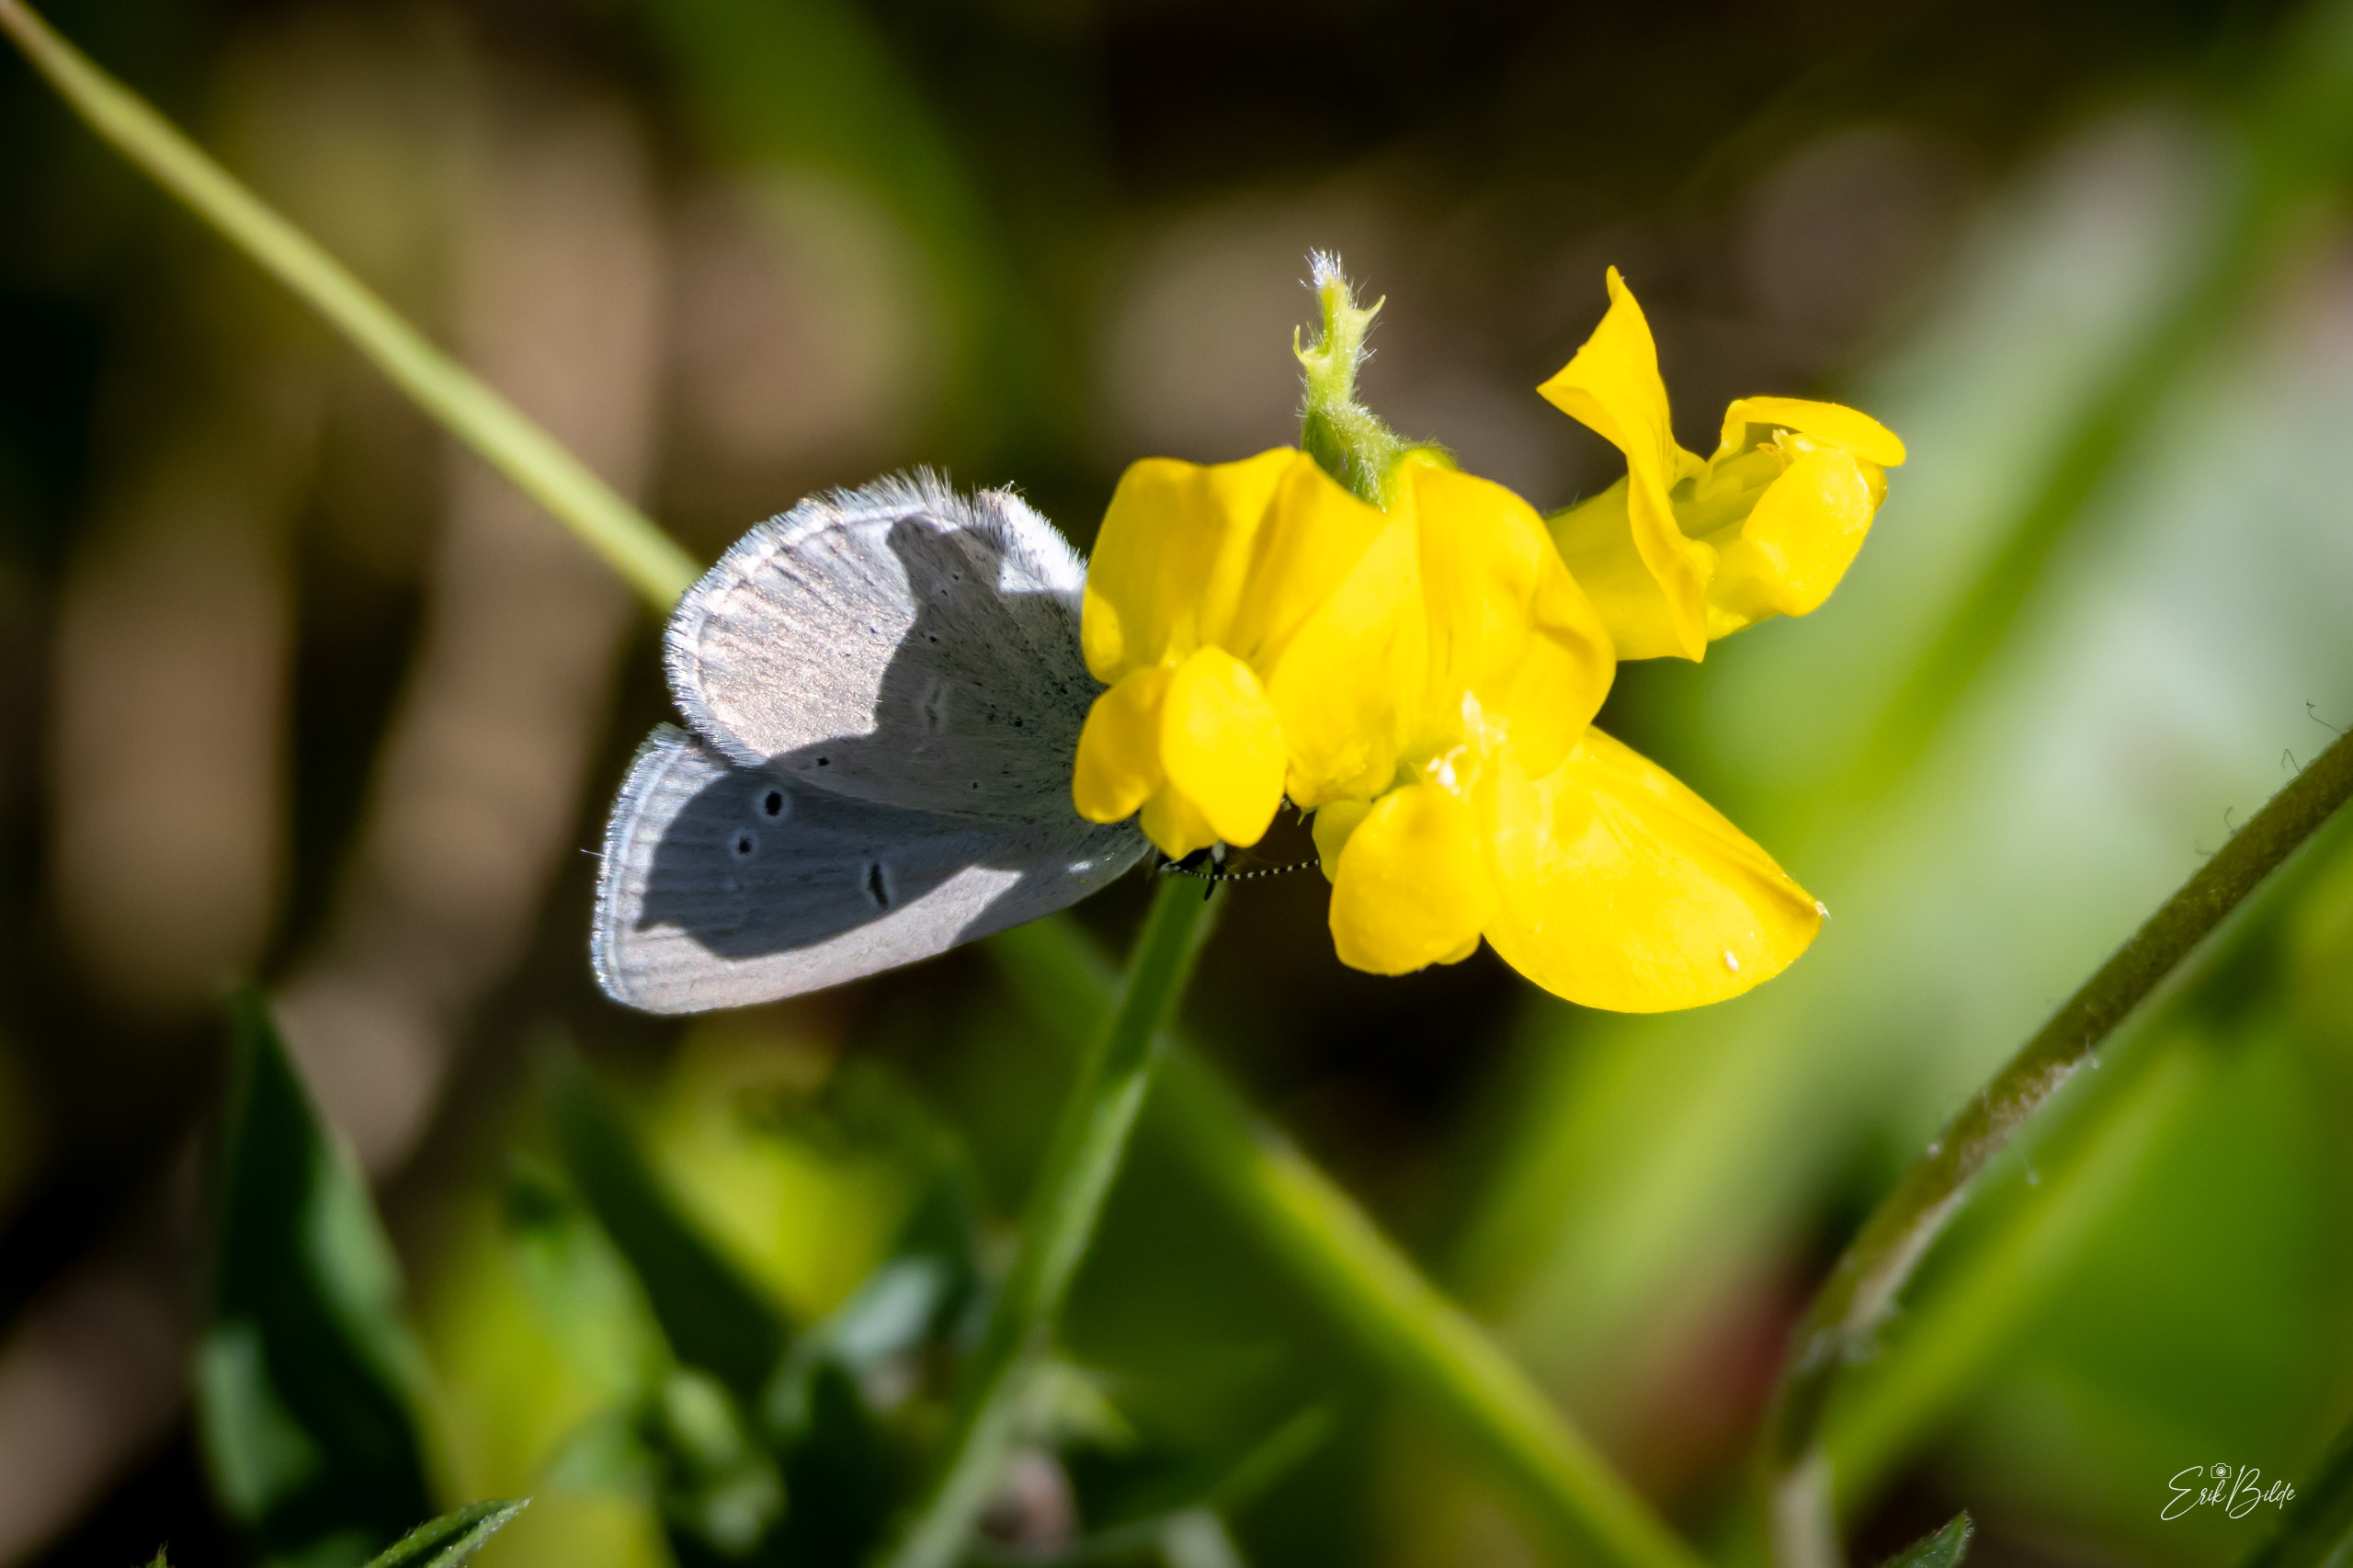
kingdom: Animalia
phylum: Arthropoda
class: Insecta
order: Lepidoptera
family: Lycaenidae
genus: Cupido
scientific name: Cupido minimus
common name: Dværgblåfugl
